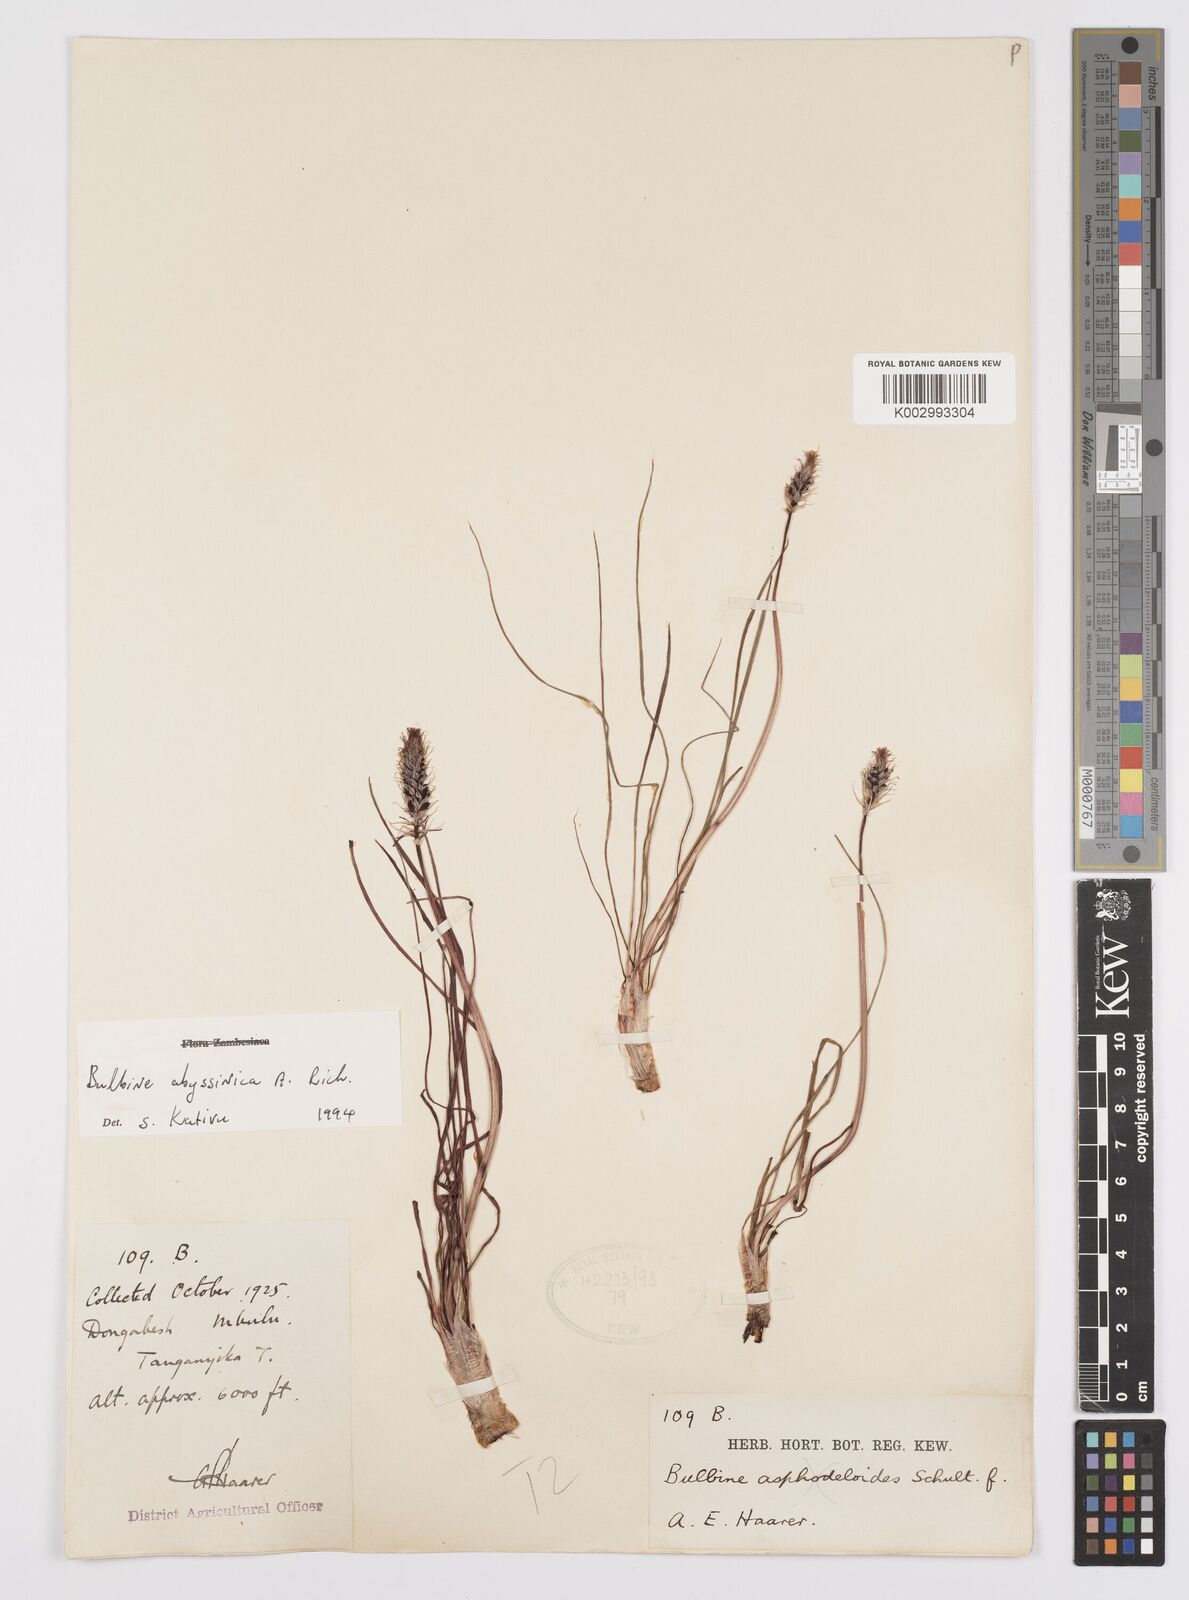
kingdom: Plantae
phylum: Tracheophyta
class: Liliopsida
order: Asparagales
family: Asphodelaceae
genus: Bulbine
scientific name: Bulbine abyssinica
